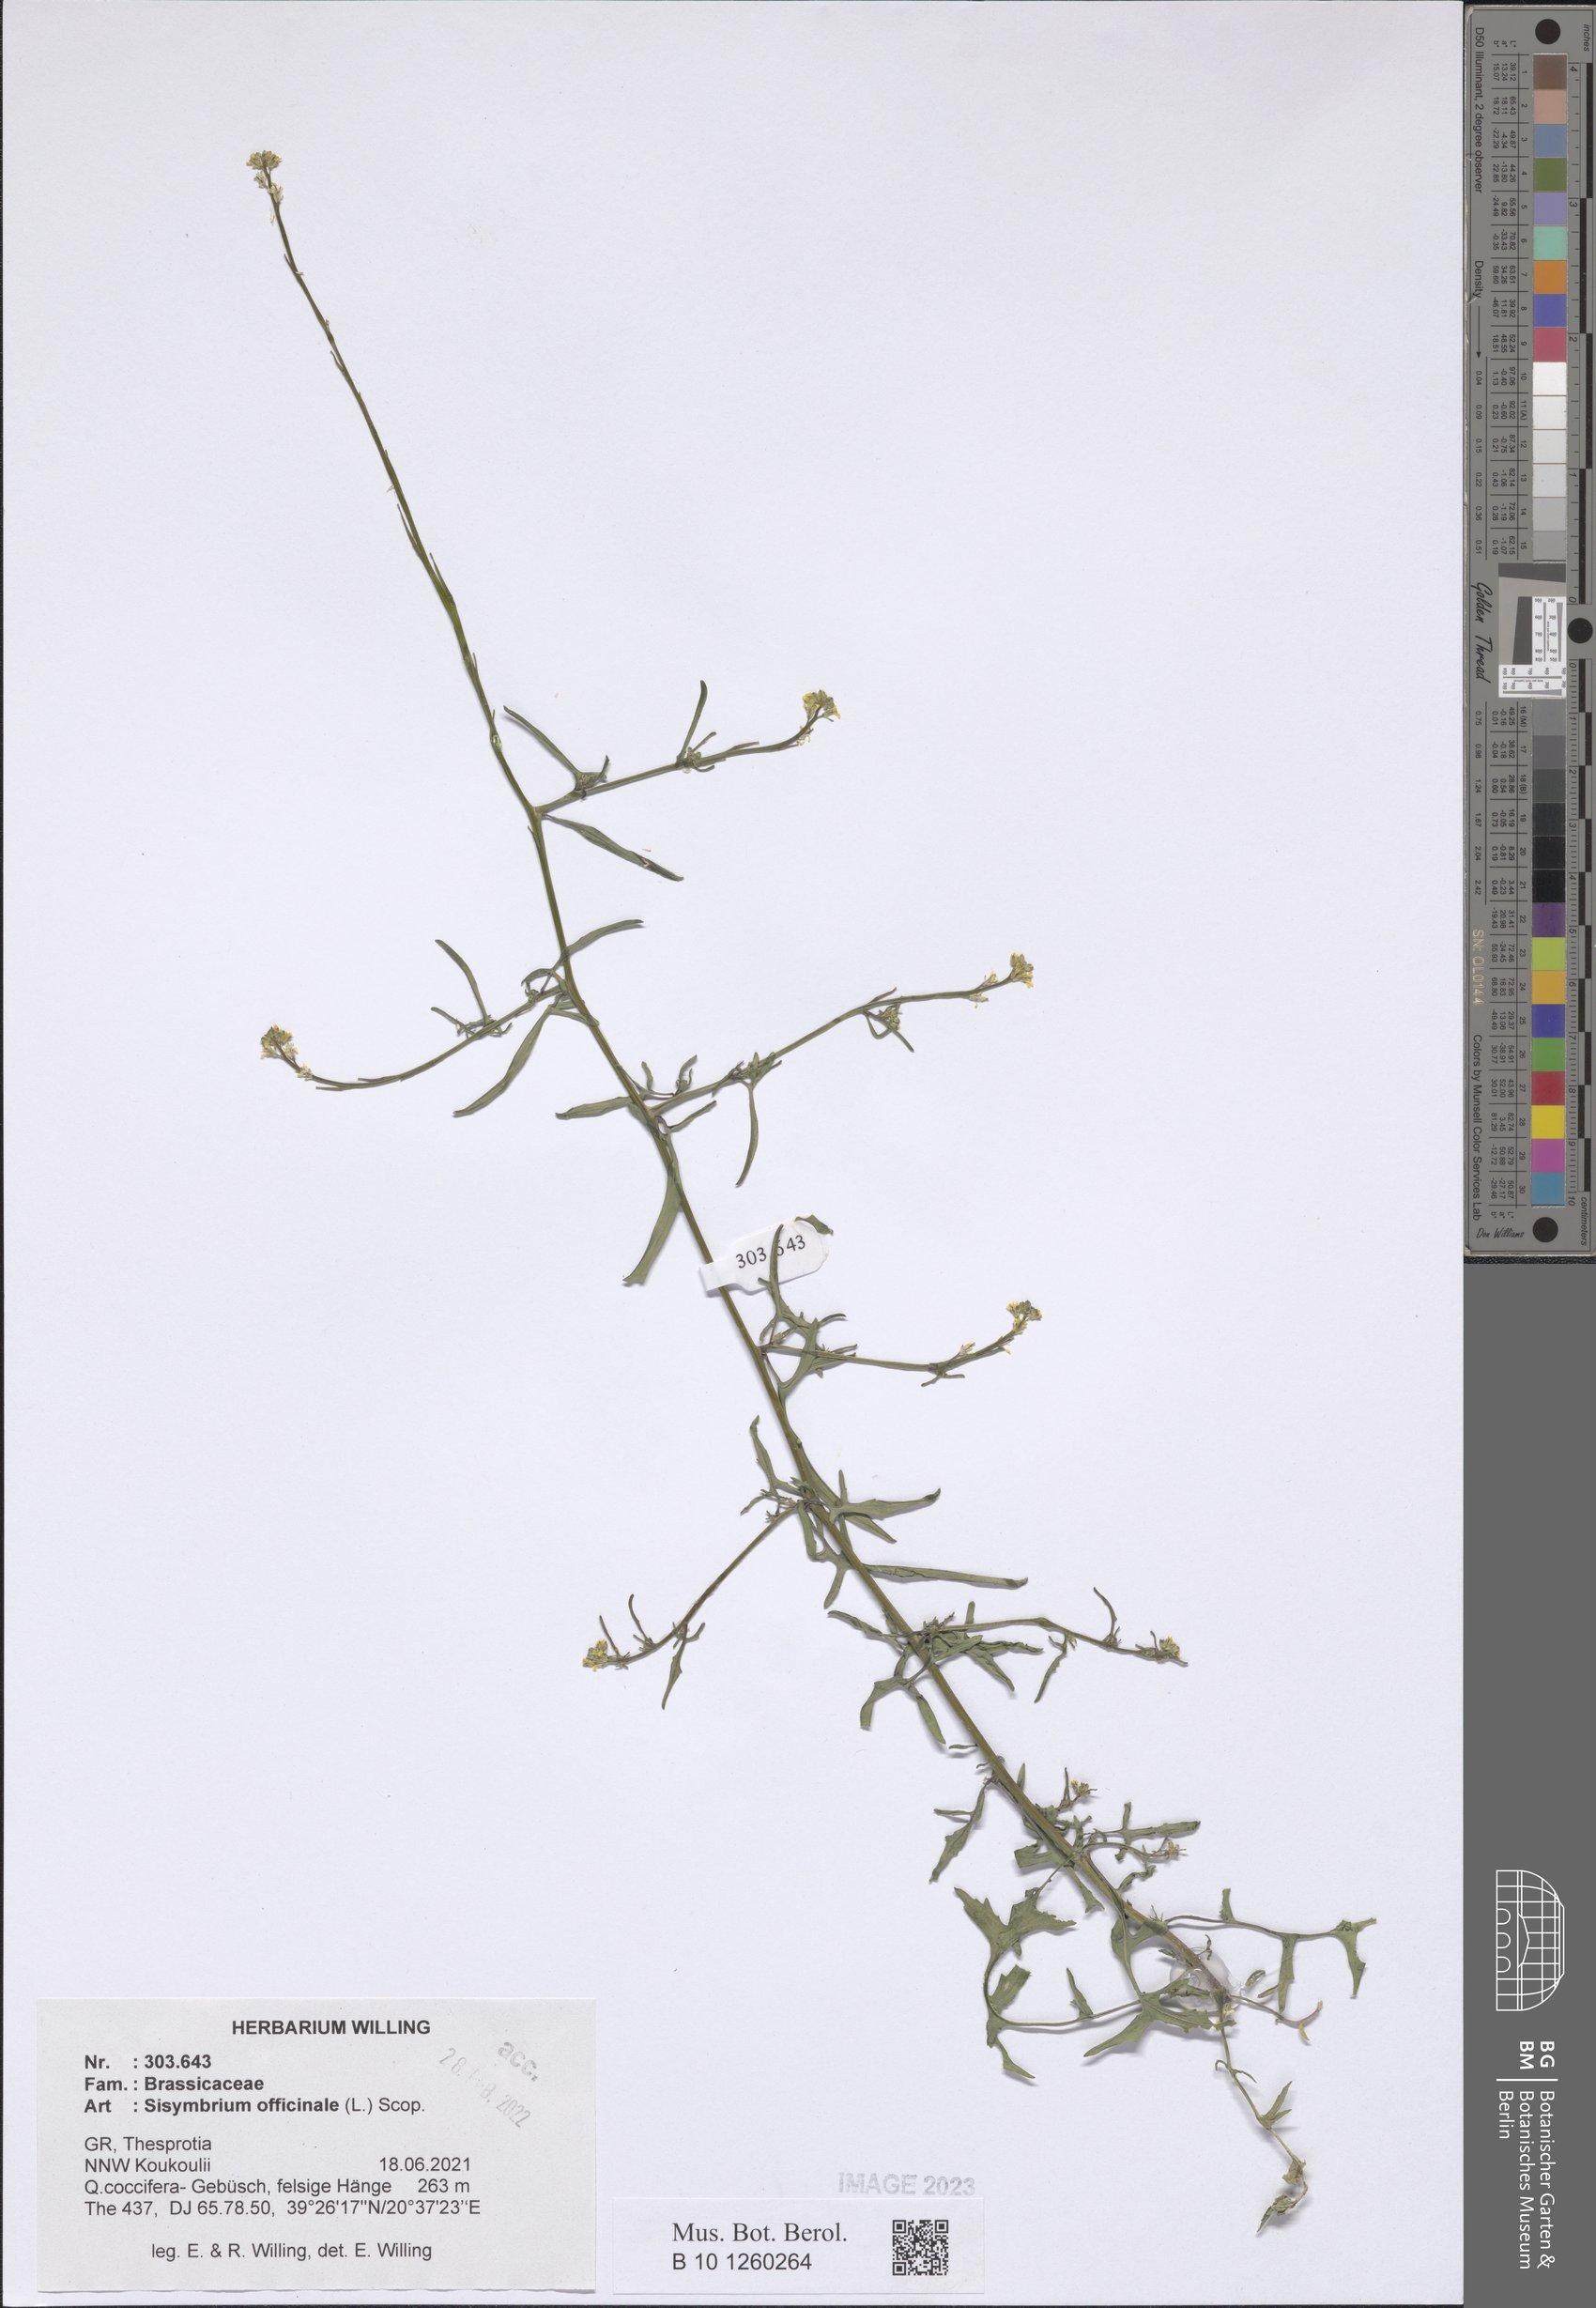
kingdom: Plantae
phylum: Tracheophyta
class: Magnoliopsida
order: Brassicales
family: Brassicaceae
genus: Sisymbrium
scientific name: Sisymbrium officinale
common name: Hedge mustard
